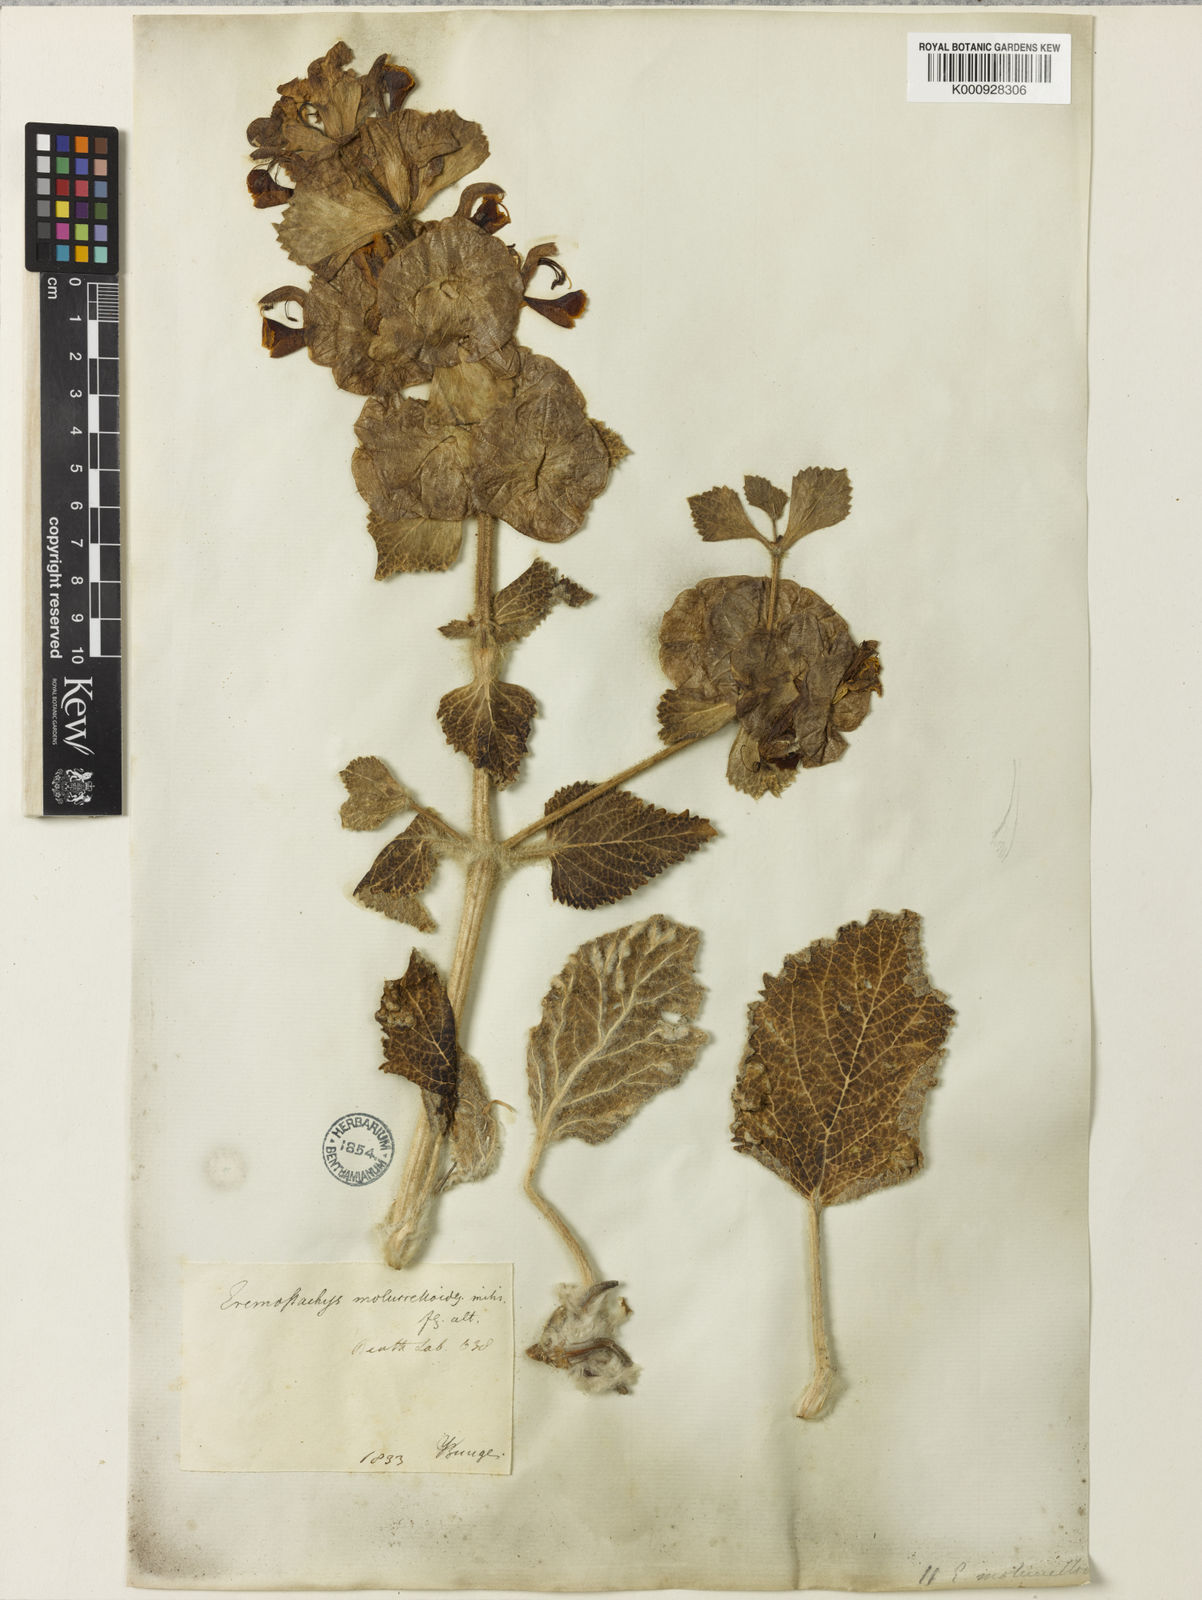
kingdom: Plantae
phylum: Tracheophyta
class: Magnoliopsida
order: Lamiales
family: Lamiaceae
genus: Phlomoides
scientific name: Phlomoides molucelloides
